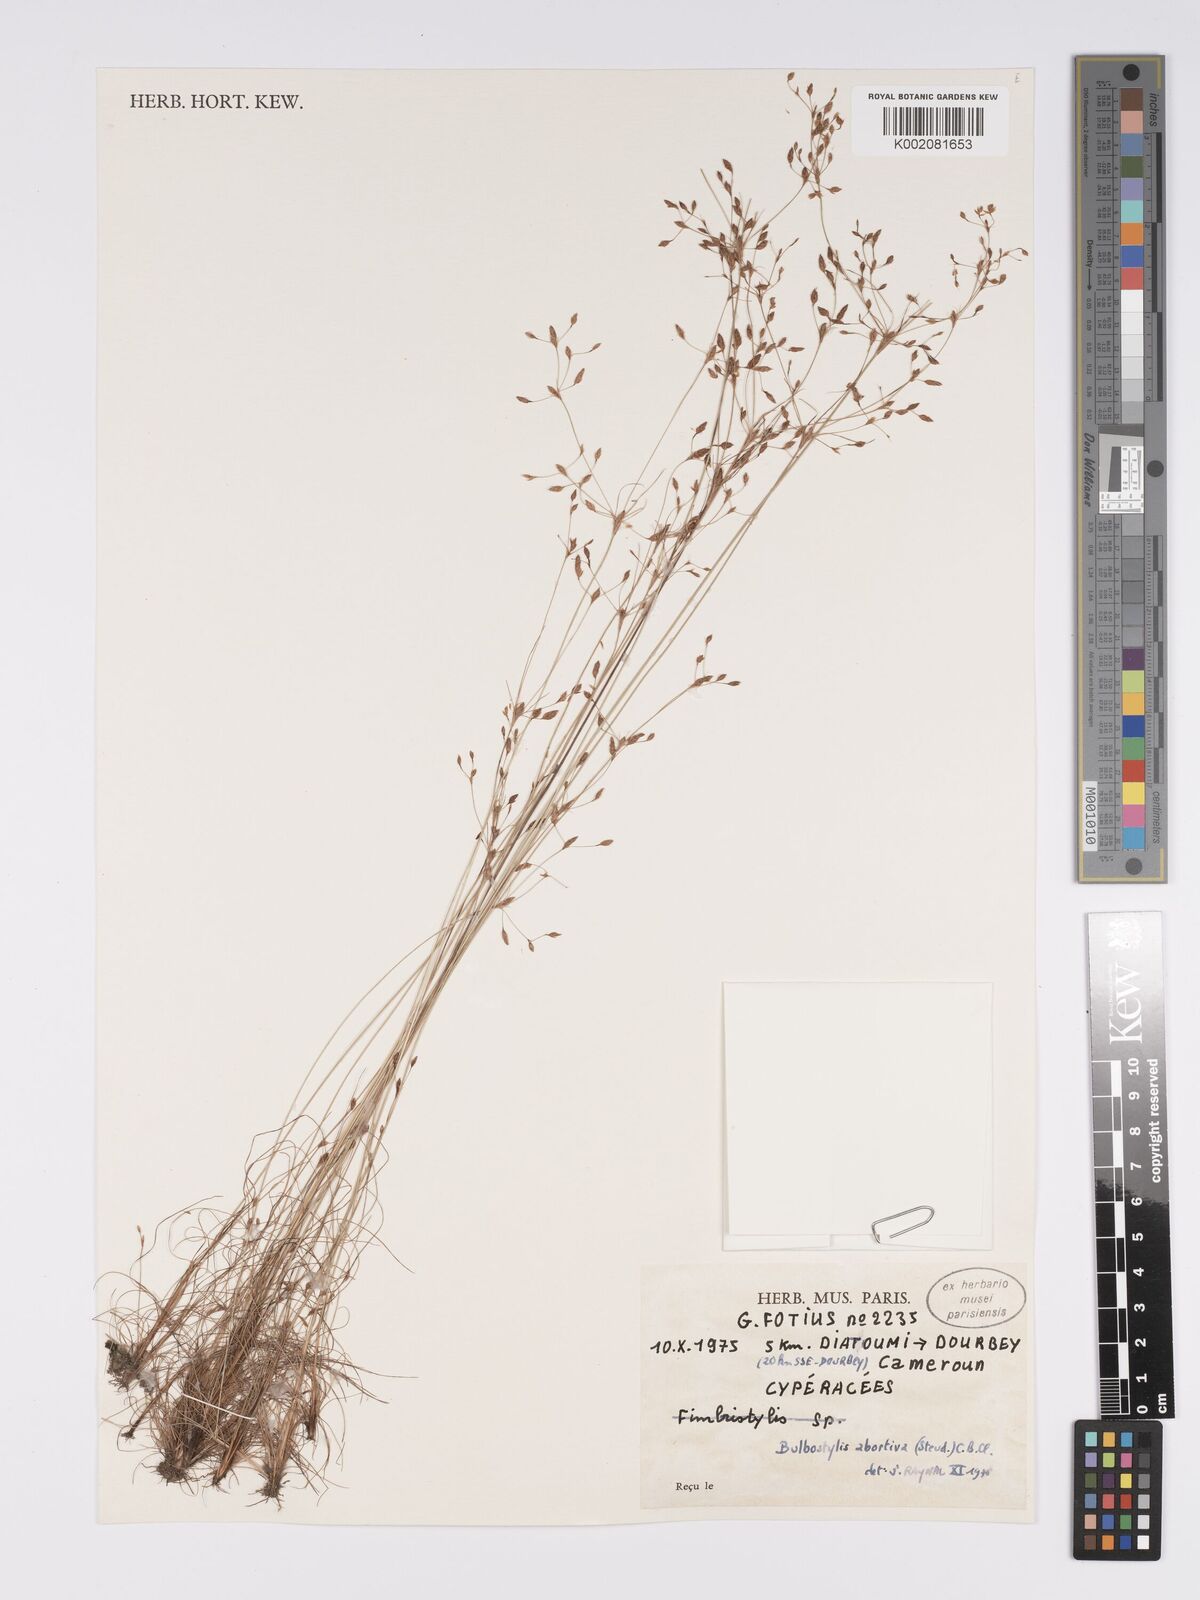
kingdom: Plantae
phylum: Tracheophyta
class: Liliopsida
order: Poales
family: Cyperaceae
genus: Bulbostylis
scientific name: Bulbostylis abortiva
